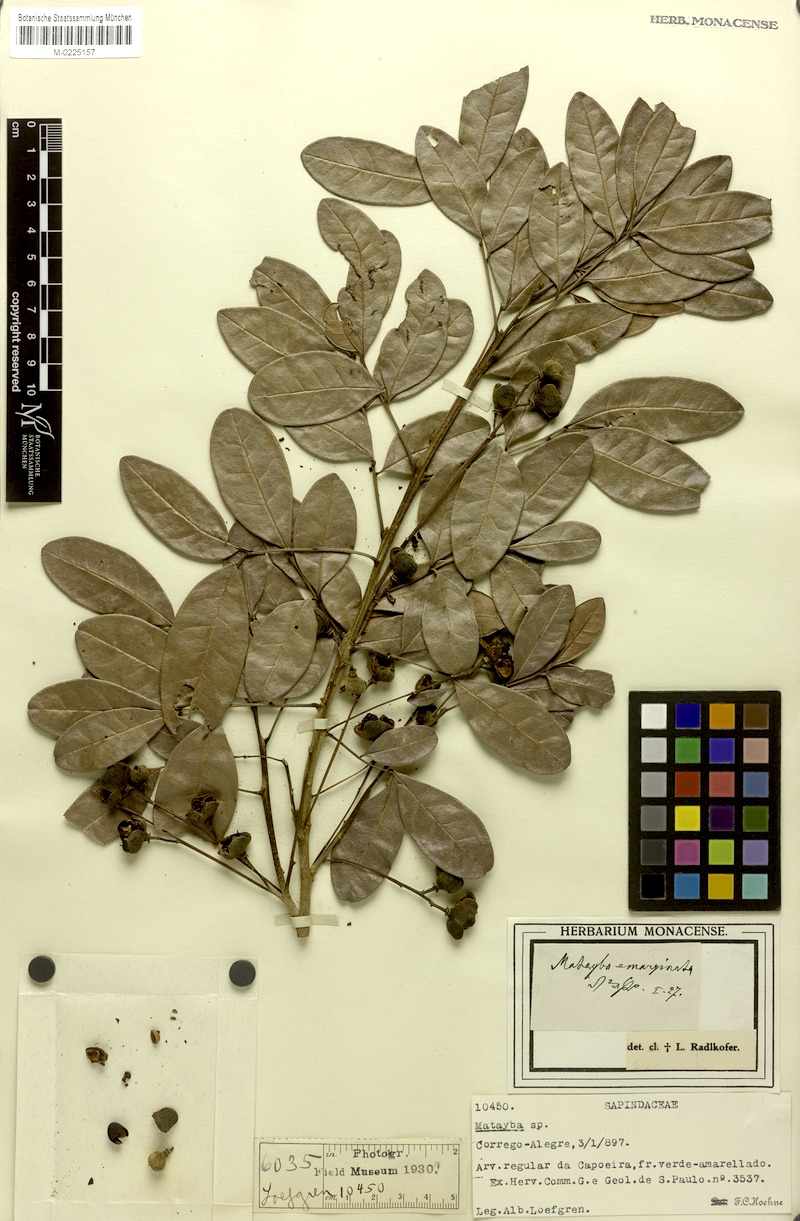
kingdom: Plantae
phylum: Tracheophyta
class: Magnoliopsida
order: Sapindales
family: Sapindaceae
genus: Matayba
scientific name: Matayba emarginata
